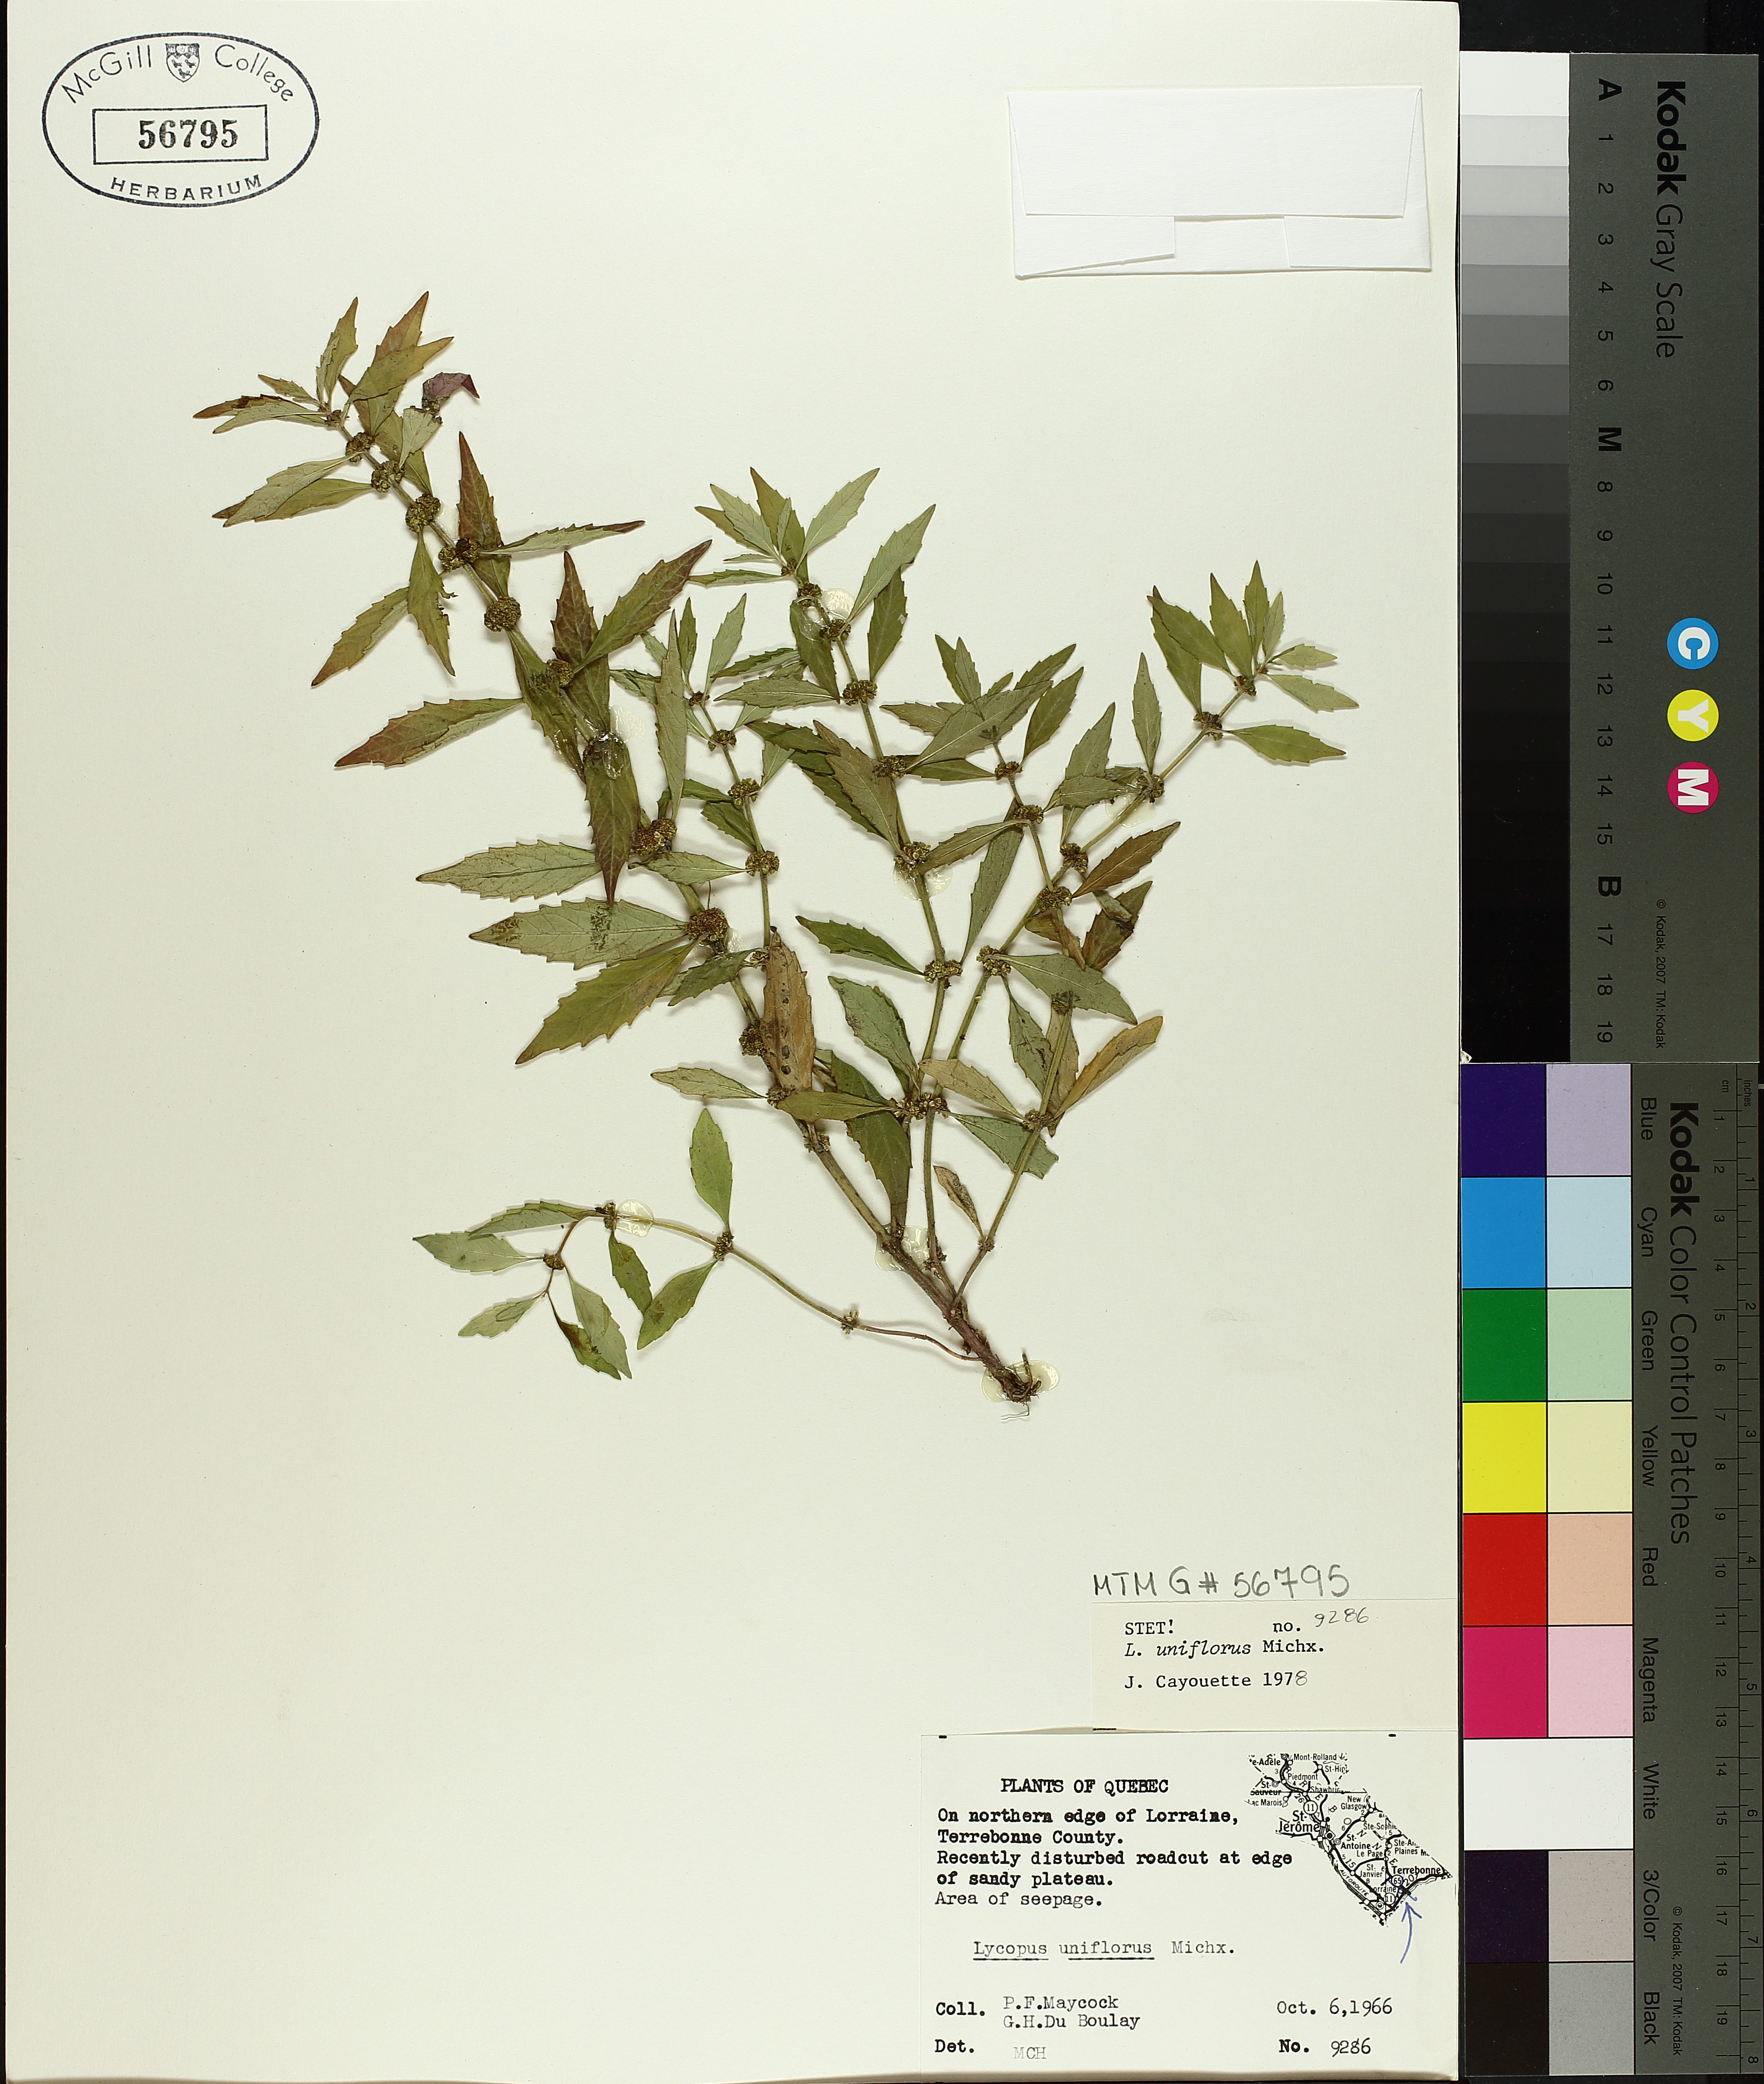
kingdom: Plantae
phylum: Tracheophyta
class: Magnoliopsida
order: Lamiales
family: Lamiaceae
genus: Lycopus
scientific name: Lycopus uniflorus
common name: Northern bugleweed
